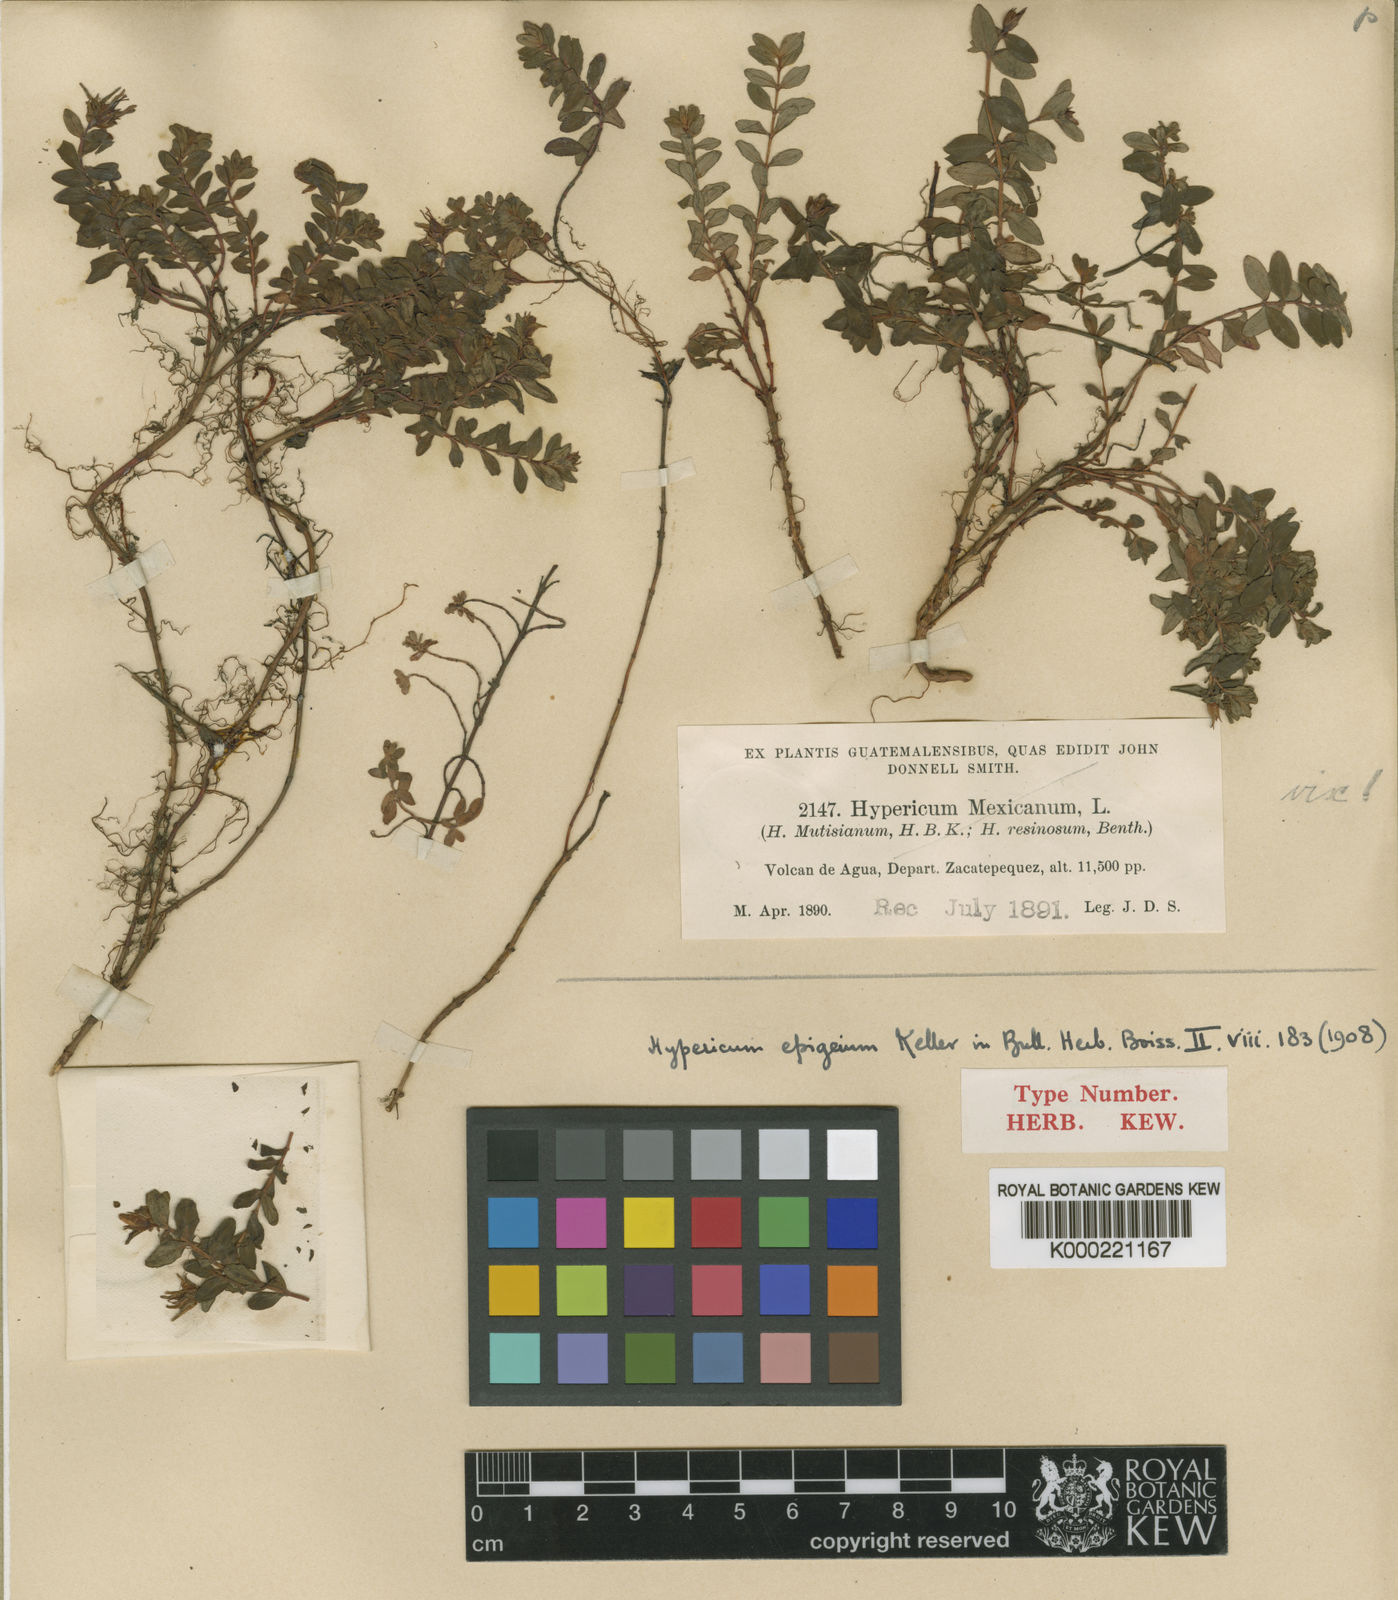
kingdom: Plantae
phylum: Tracheophyta
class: Magnoliopsida
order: Malpighiales
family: Hypericaceae
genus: Hypericum
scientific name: Hypericum epigeium
